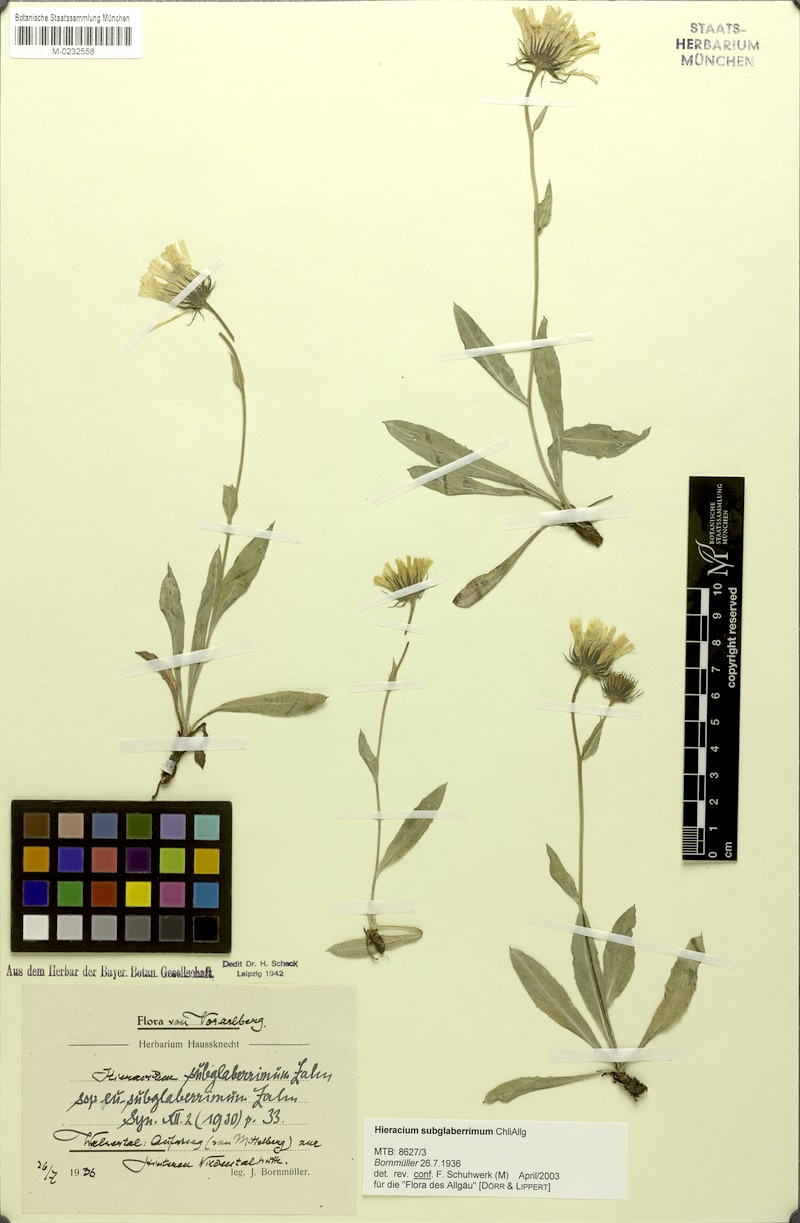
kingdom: Plantae
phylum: Tracheophyta
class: Magnoliopsida
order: Asterales
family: Asteraceae
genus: Hieracium
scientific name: Hieracium subglaberrimum
